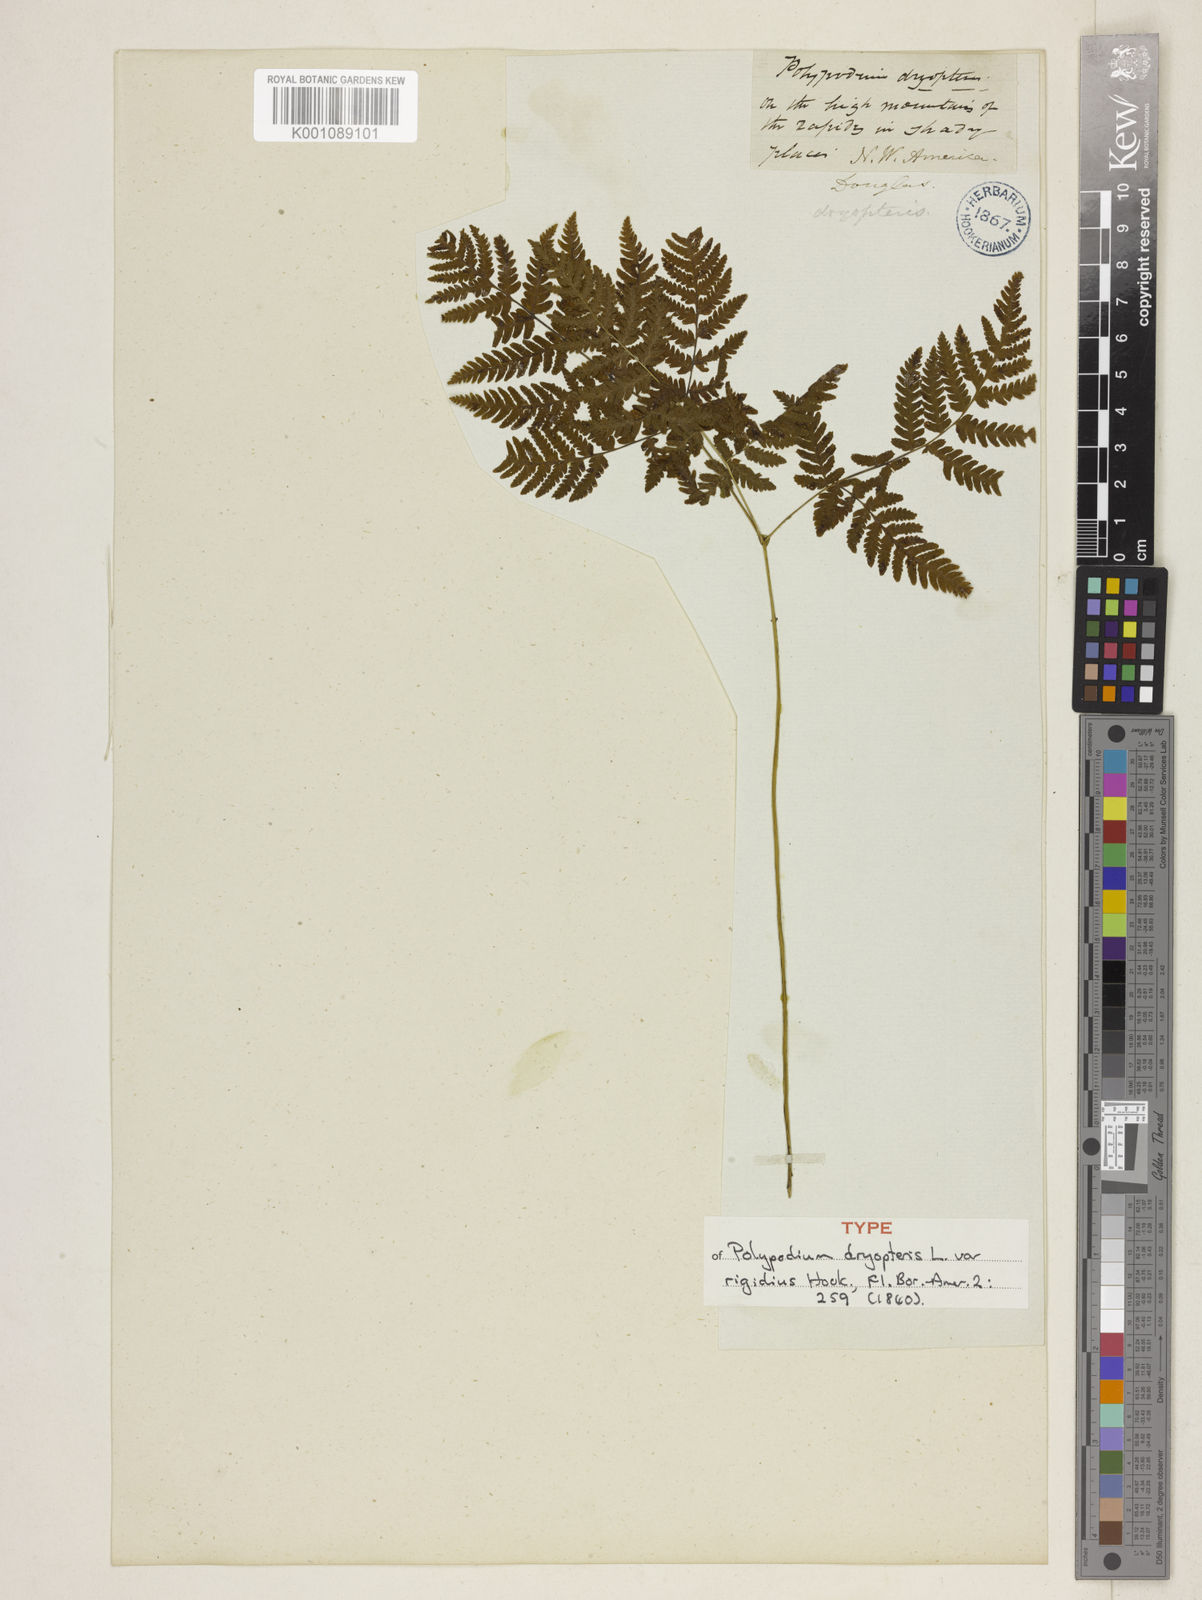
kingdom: Plantae
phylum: Tracheophyta
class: Polypodiopsida
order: Polypodiales
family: Cystopteridaceae
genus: Gymnocarpium
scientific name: Gymnocarpium dryopteris
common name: Oak fern
